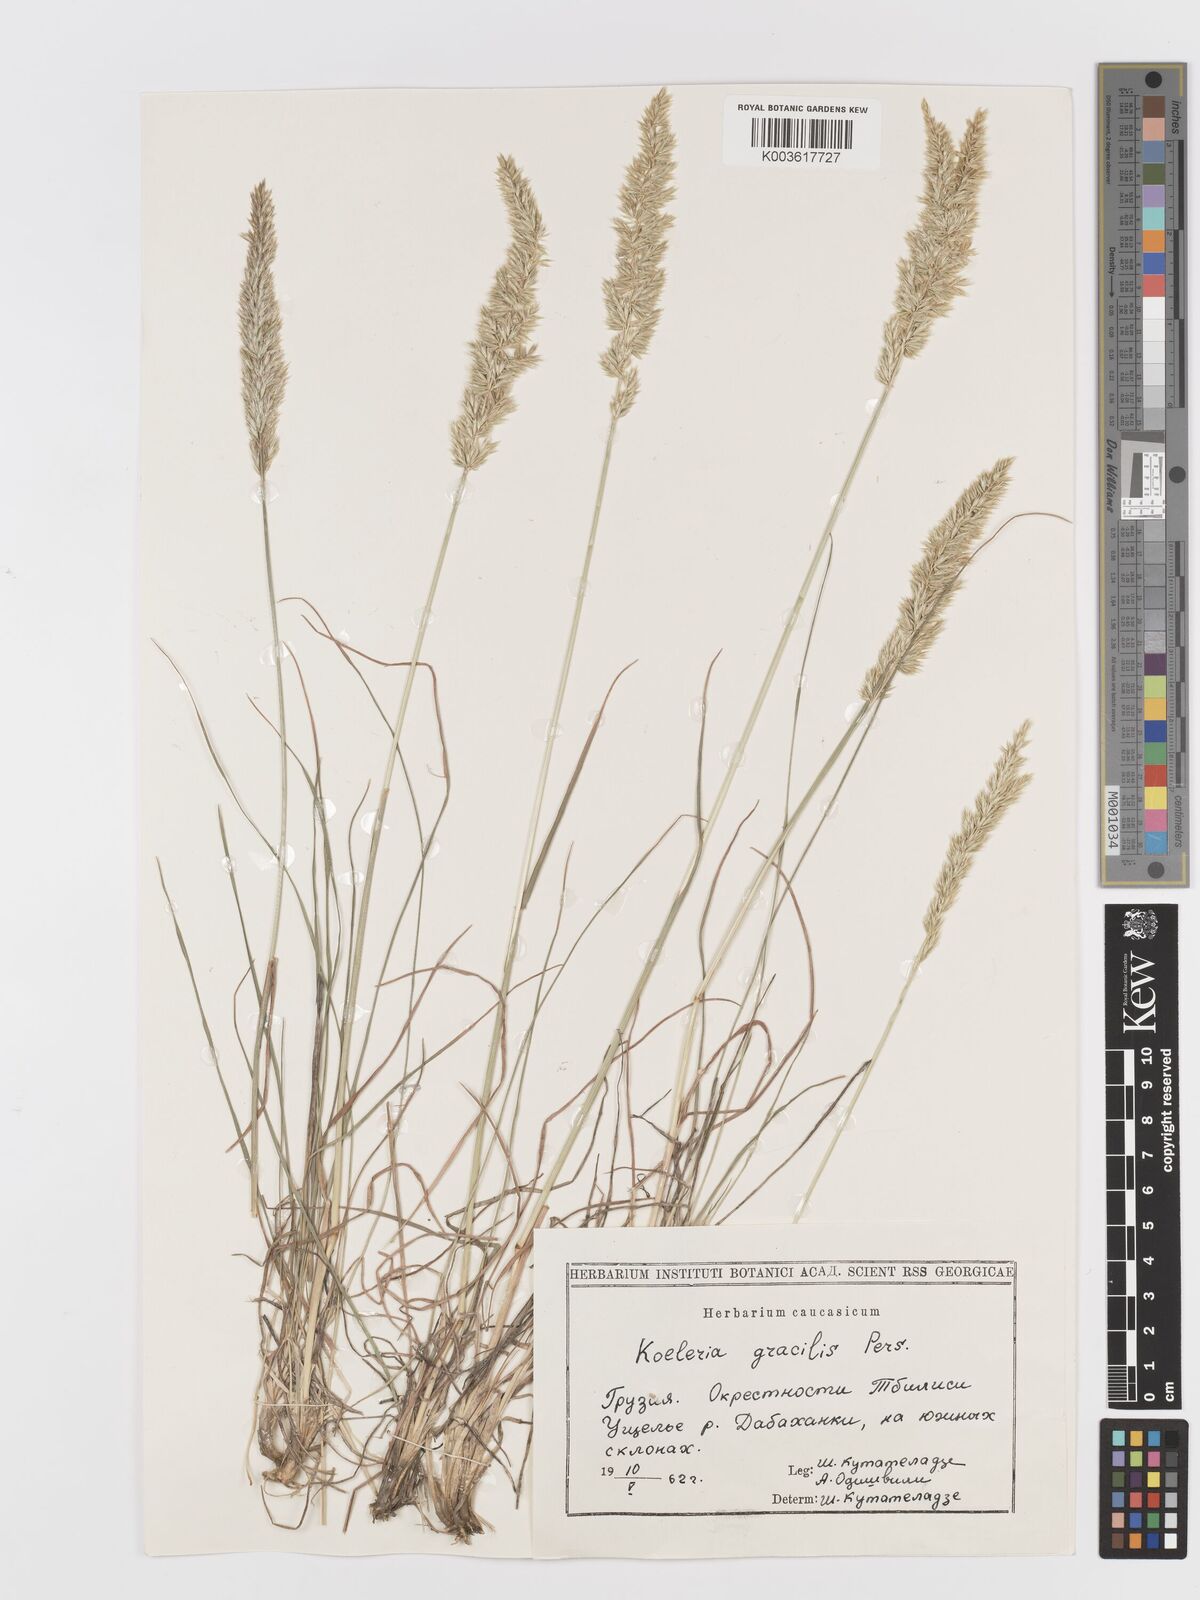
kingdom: Plantae
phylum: Tracheophyta
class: Liliopsida
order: Poales
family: Poaceae
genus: Koeleria
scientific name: Koeleria splendens
